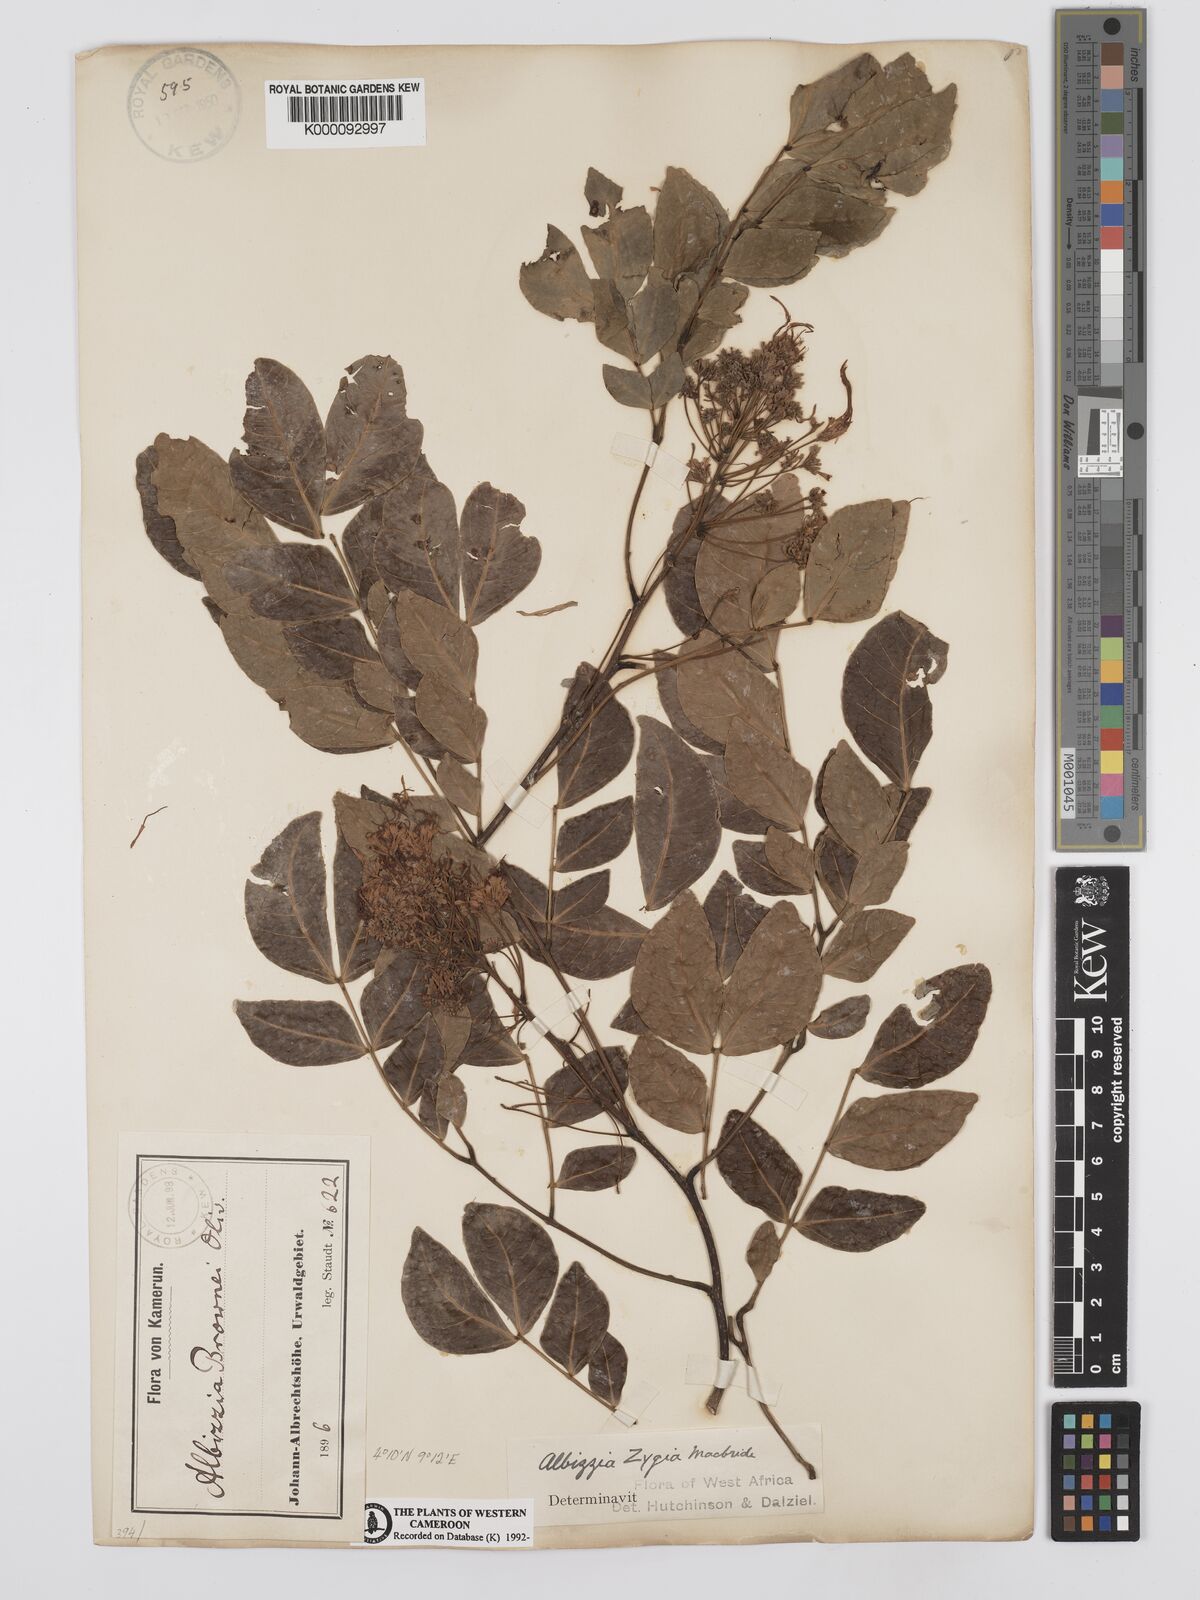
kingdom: Plantae
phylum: Tracheophyta
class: Magnoliopsida
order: Fabales
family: Fabaceae
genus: Albizia
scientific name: Albizia zygia
